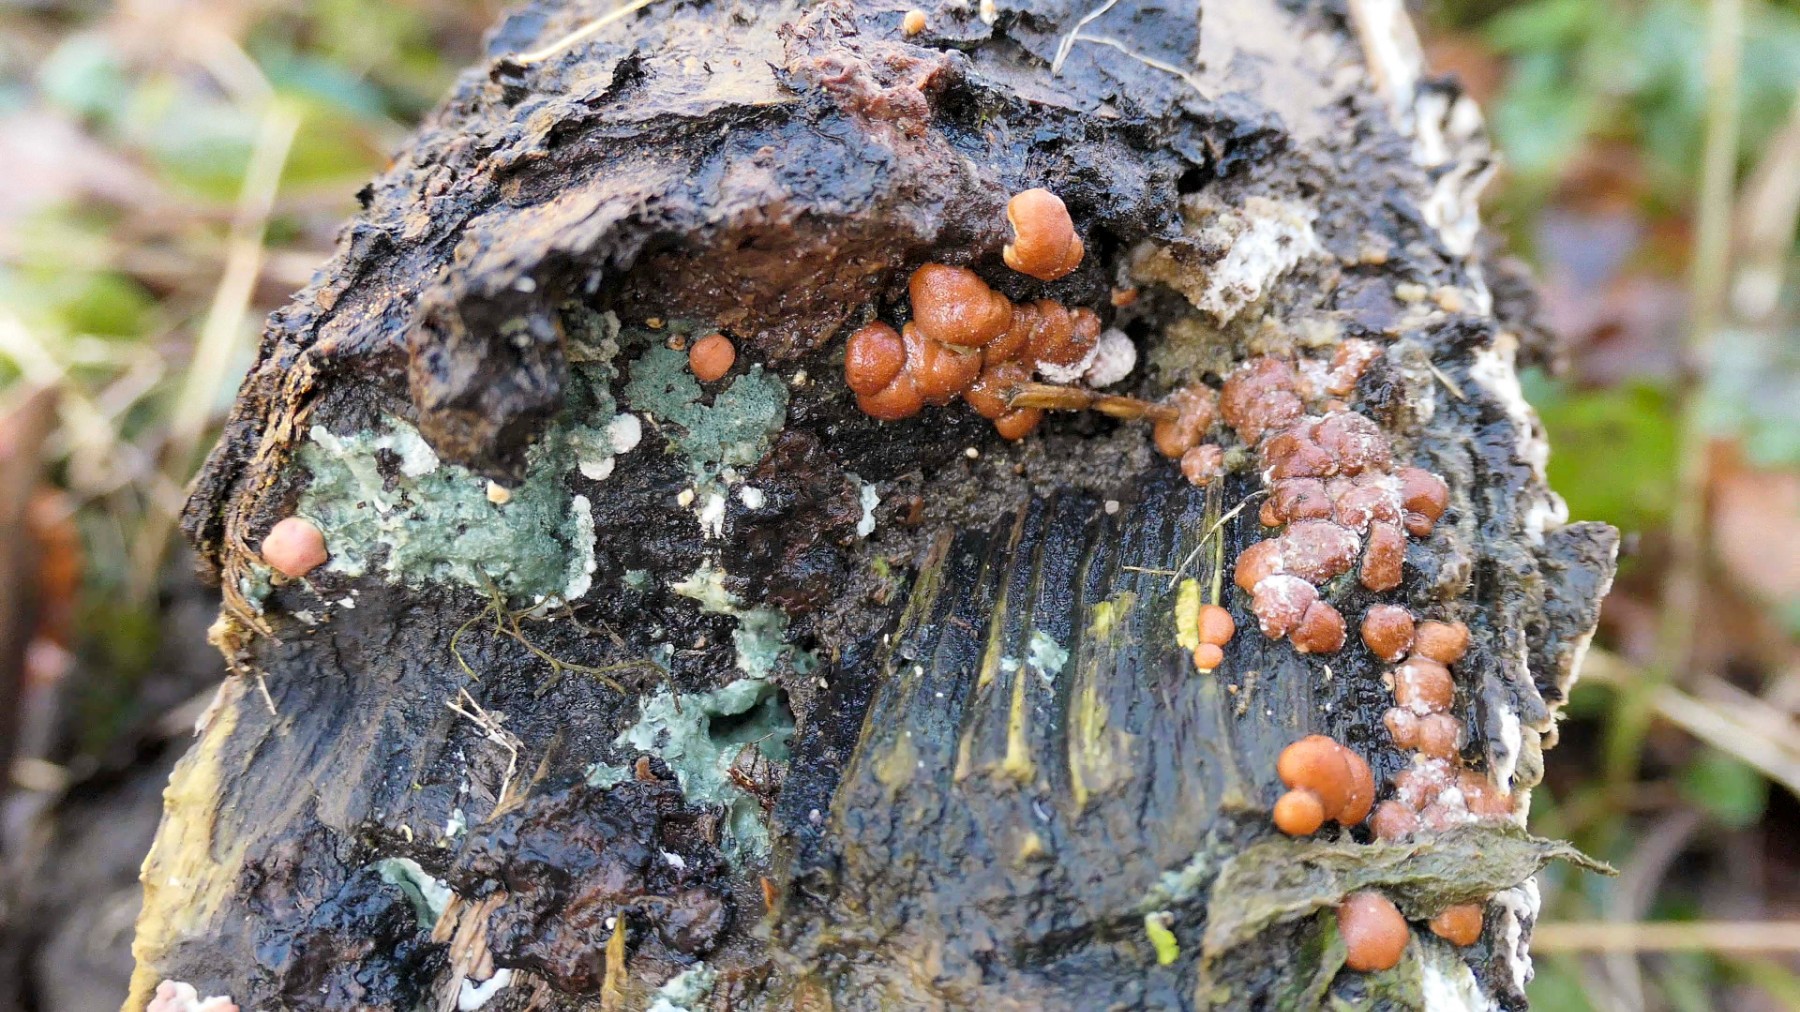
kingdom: Fungi
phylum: Ascomycota
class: Sordariomycetes
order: Hypocreales
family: Hypocreaceae
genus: Trichoderma
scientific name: Trichoderma europaeum
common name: rosabrun kødkerne
